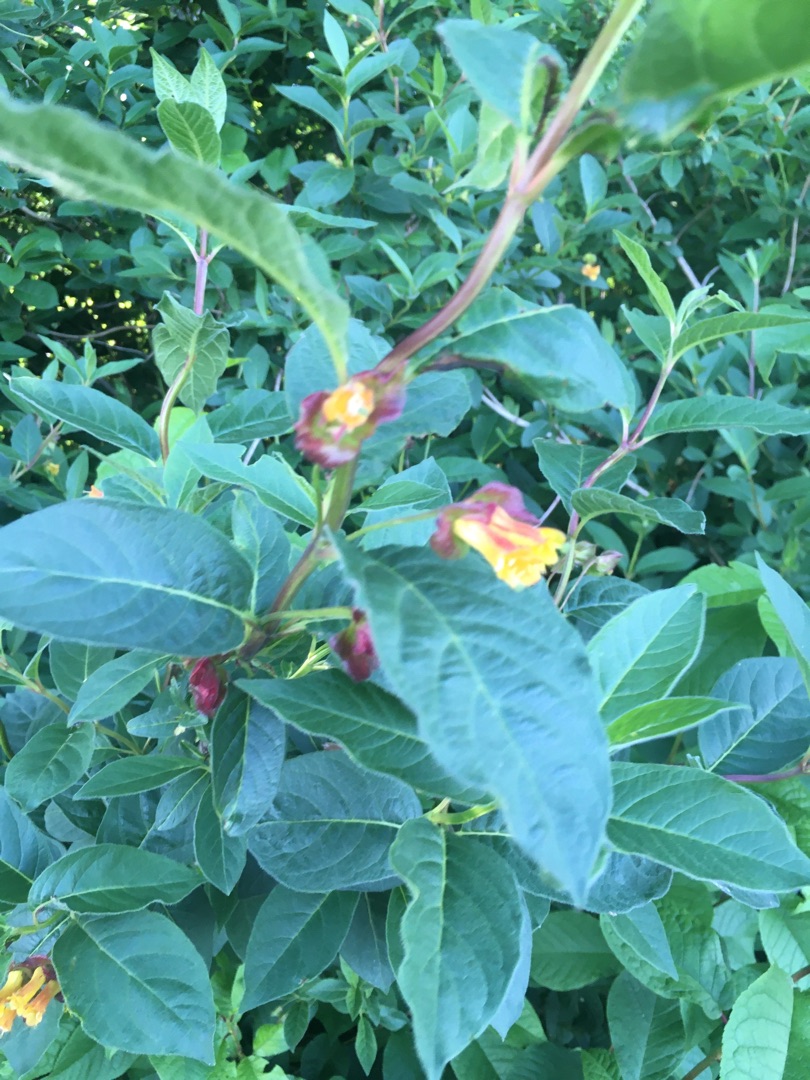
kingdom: Plantae
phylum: Tracheophyta
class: Magnoliopsida
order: Dipsacales
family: Caprifoliaceae
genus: Lonicera
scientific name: Lonicera involucrata
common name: Svøb-gedeblad
